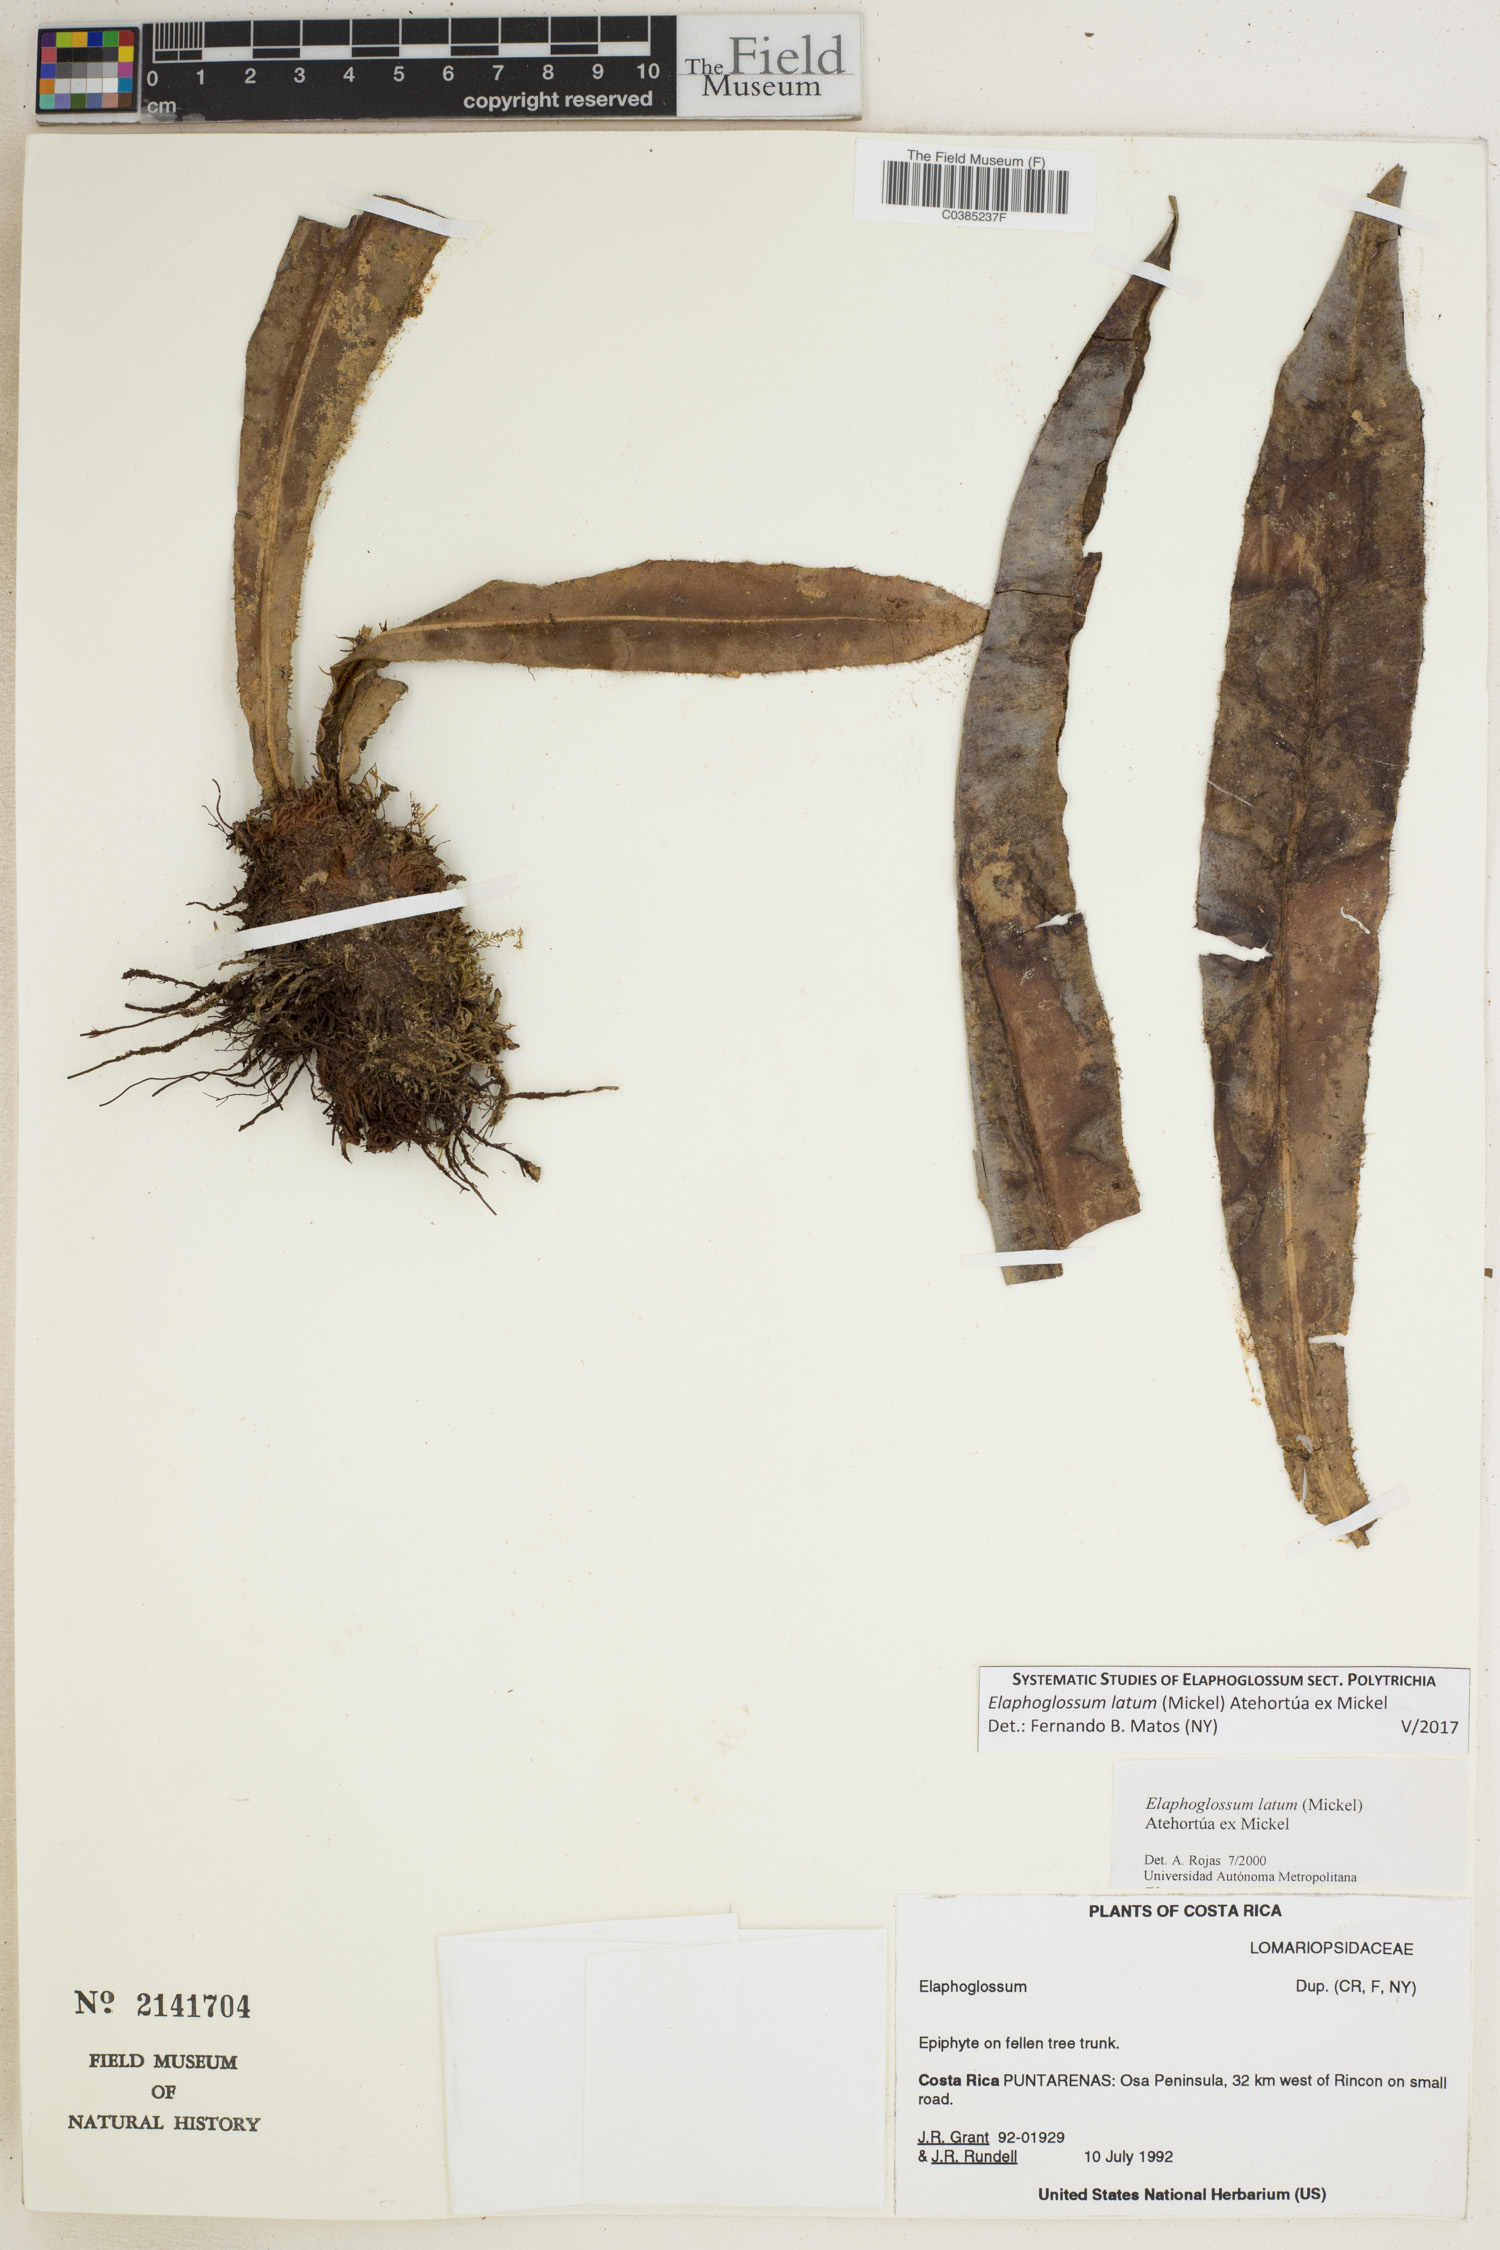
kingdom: Plantae
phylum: Tracheophyta
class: Polypodiopsida
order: Polypodiales
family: Dryopteridaceae
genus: Elaphoglossum
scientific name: Elaphoglossum latum
